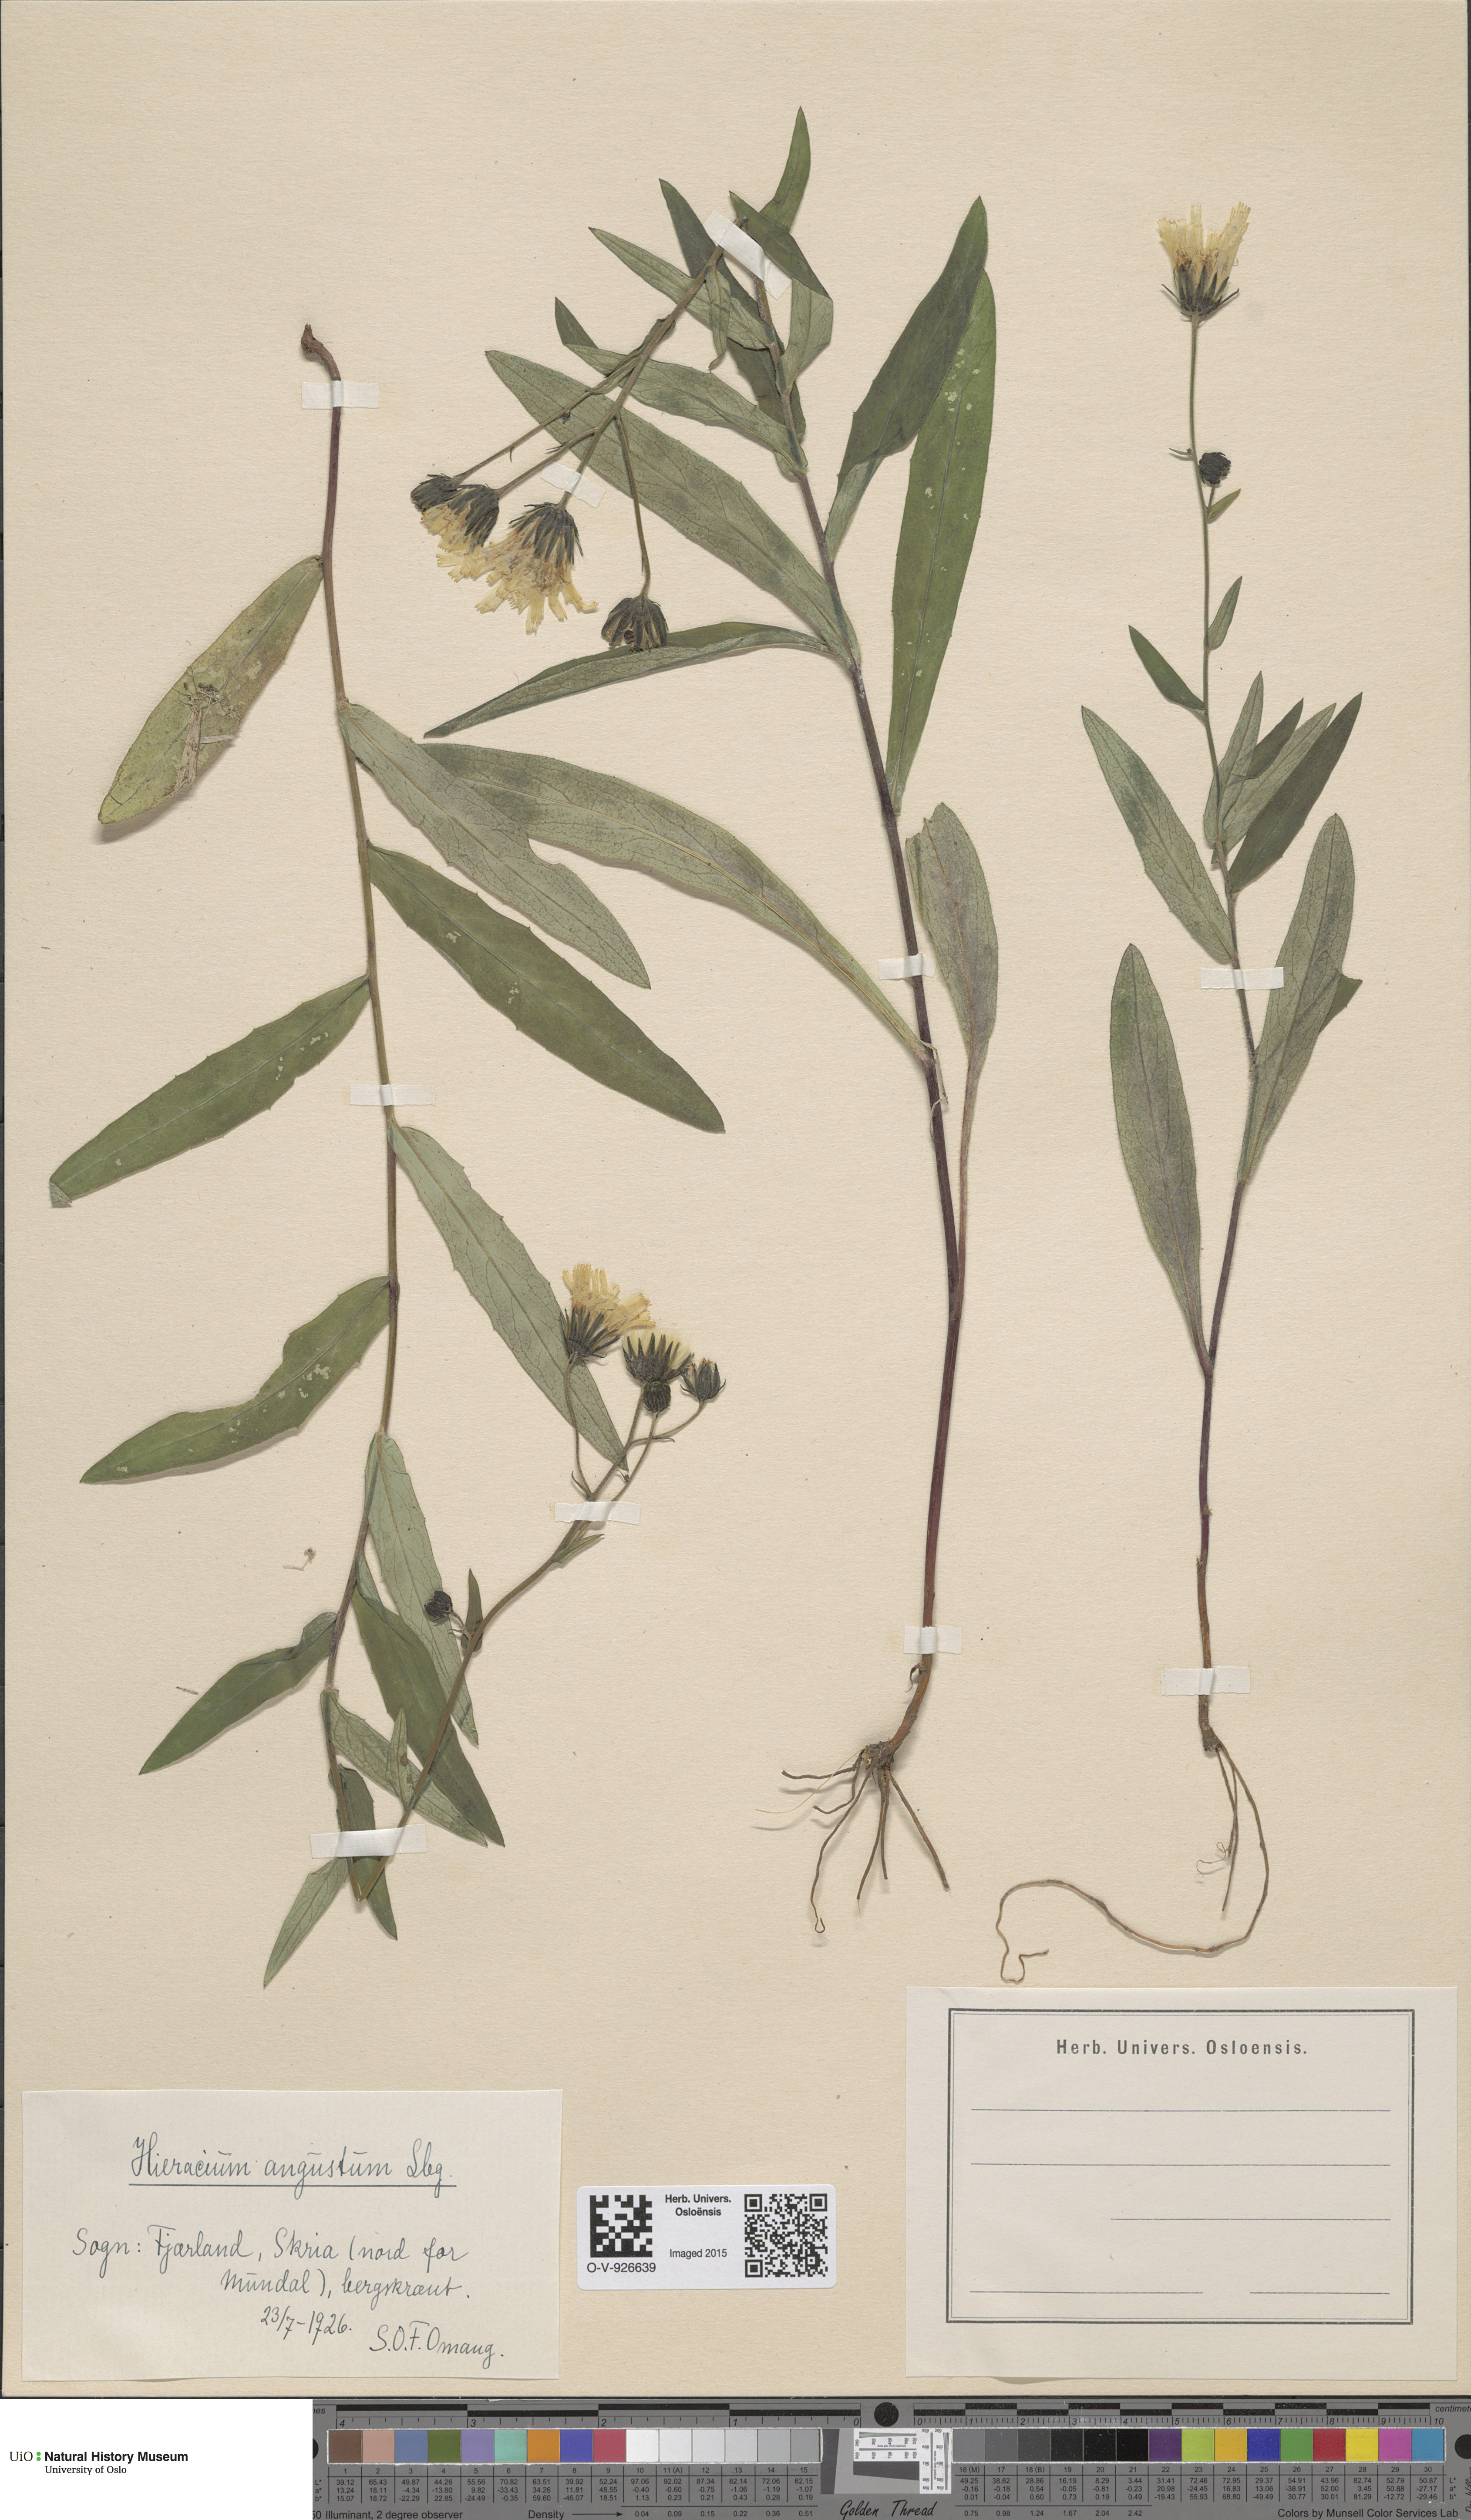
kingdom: Plantae
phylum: Tracheophyta
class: Magnoliopsida
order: Asterales
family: Asteraceae
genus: Hieracium
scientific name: Hieracium angustum
